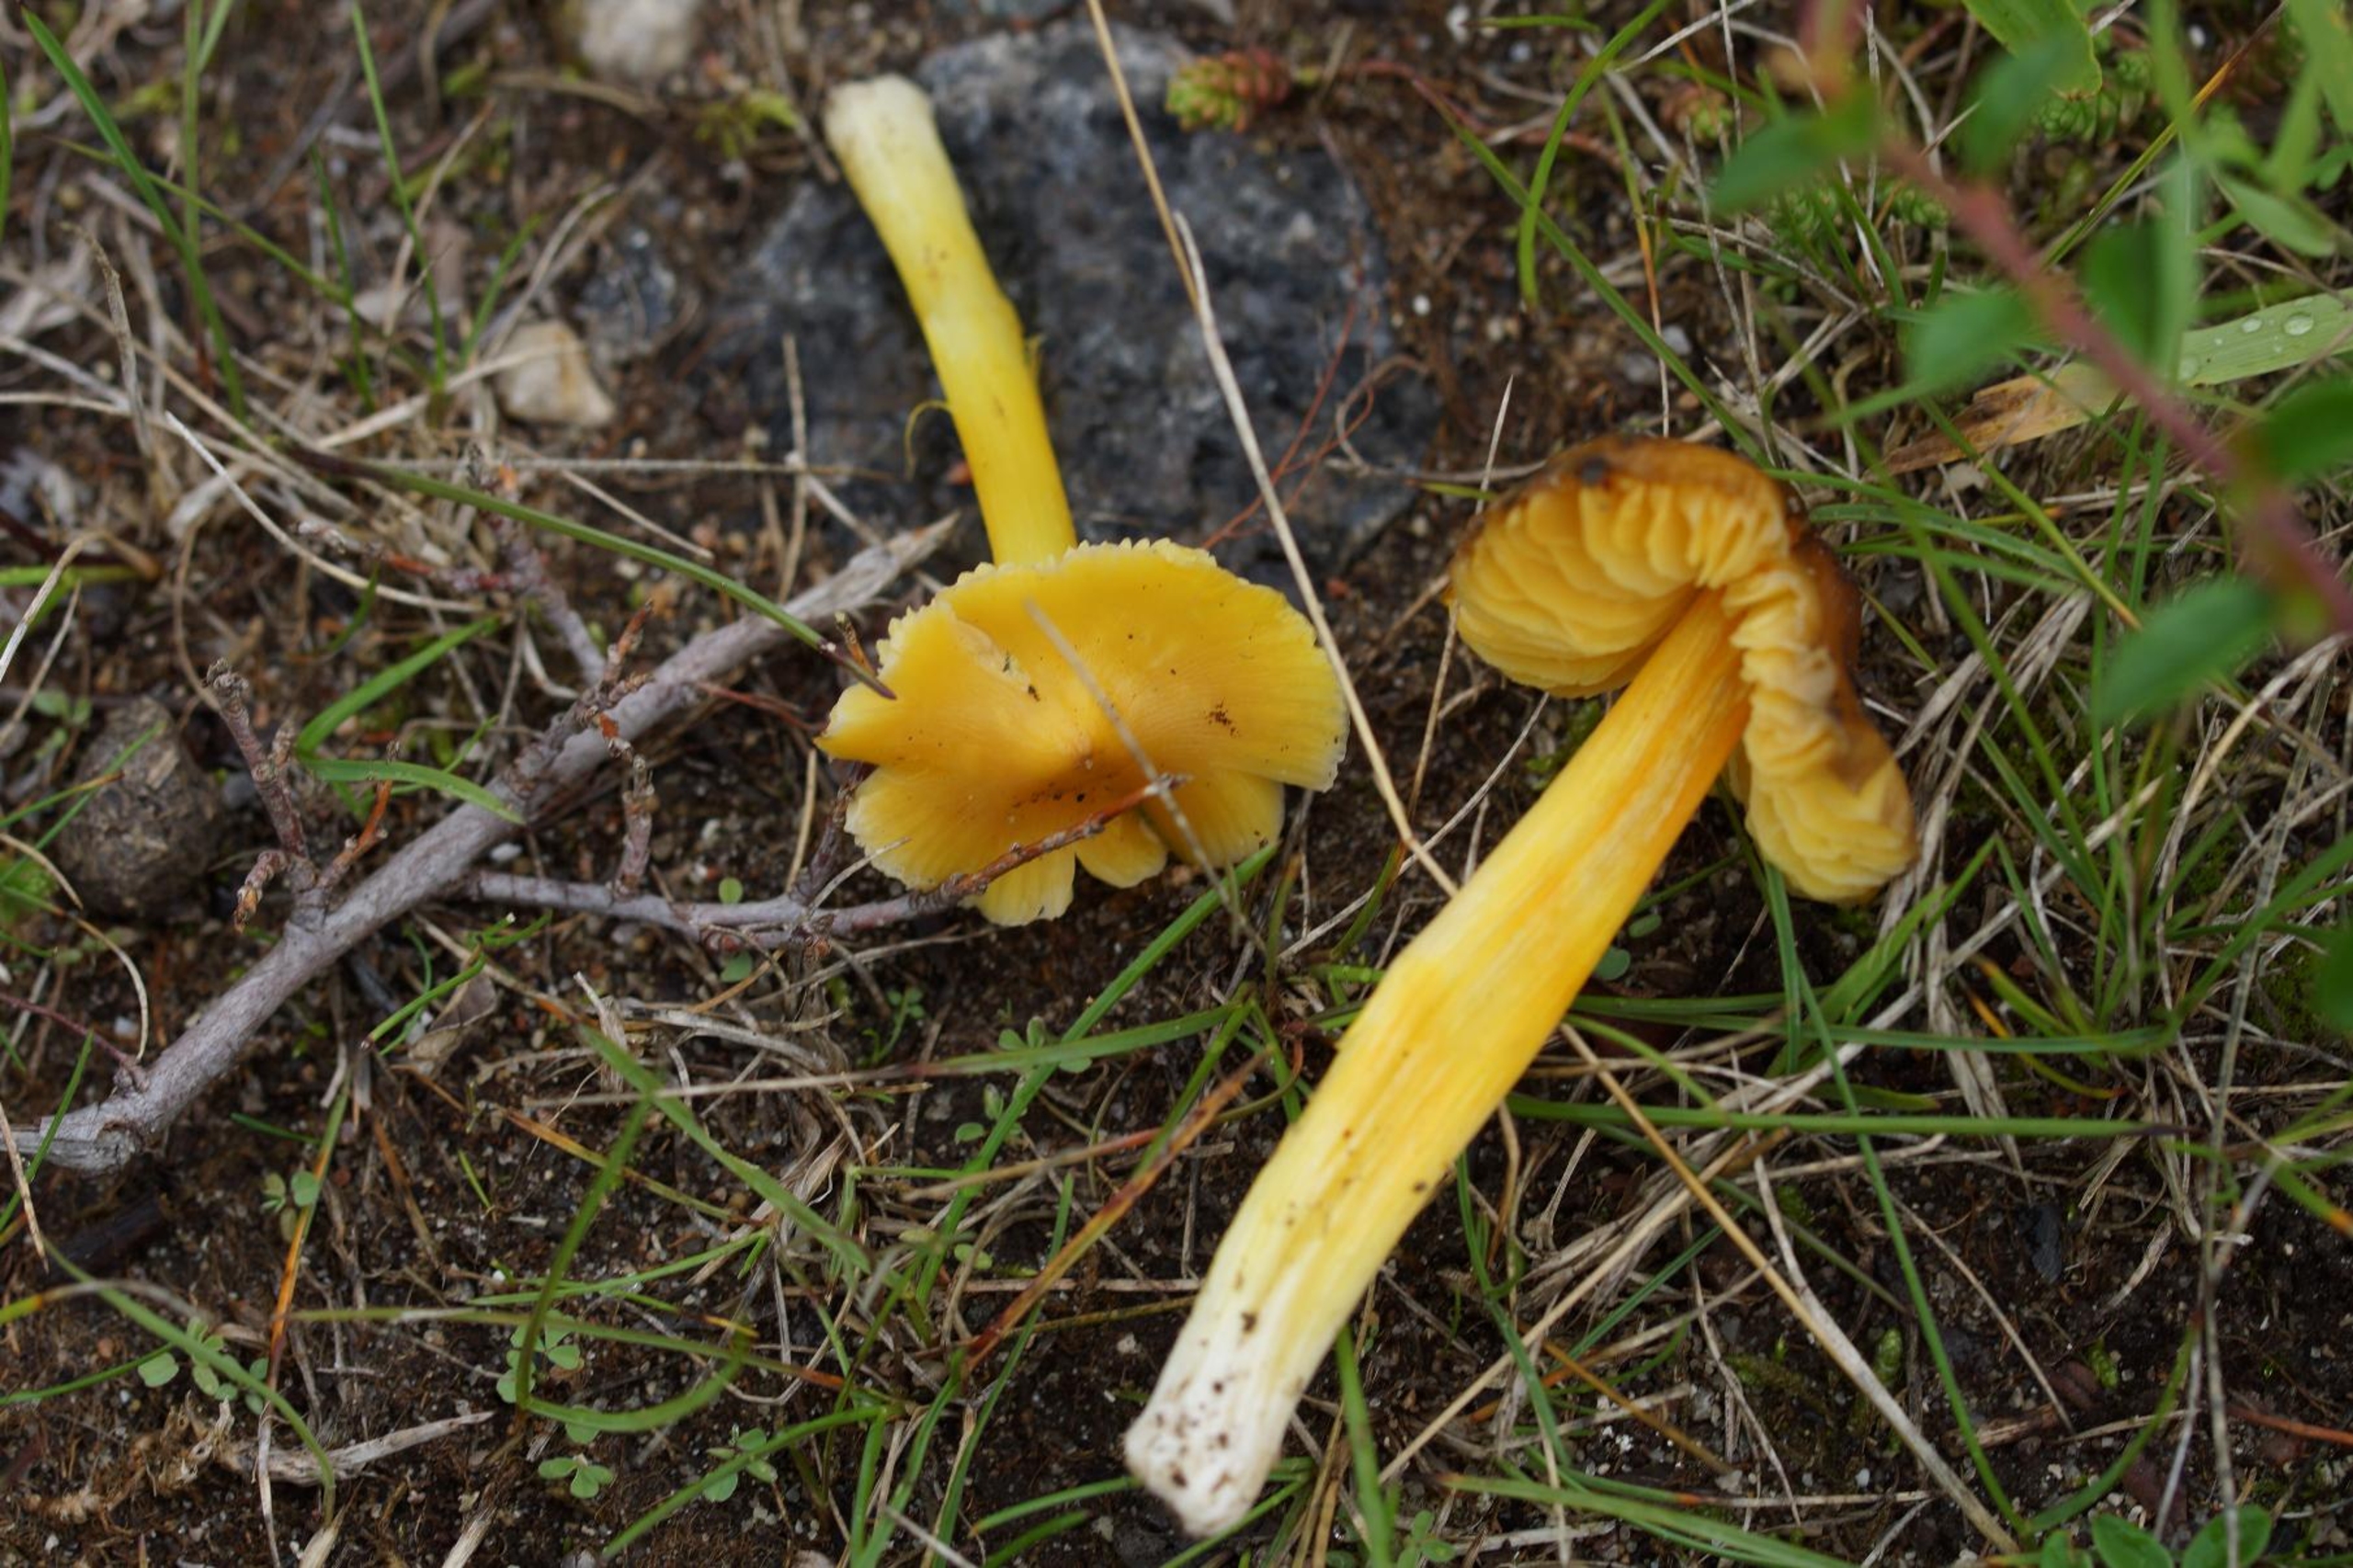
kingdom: Fungi
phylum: Basidiomycota
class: Agaricomycetes
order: Agaricales
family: Hygrophoraceae
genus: Hygrocybe
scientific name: Hygrocybe acutoconica
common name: Konrads vokshat
